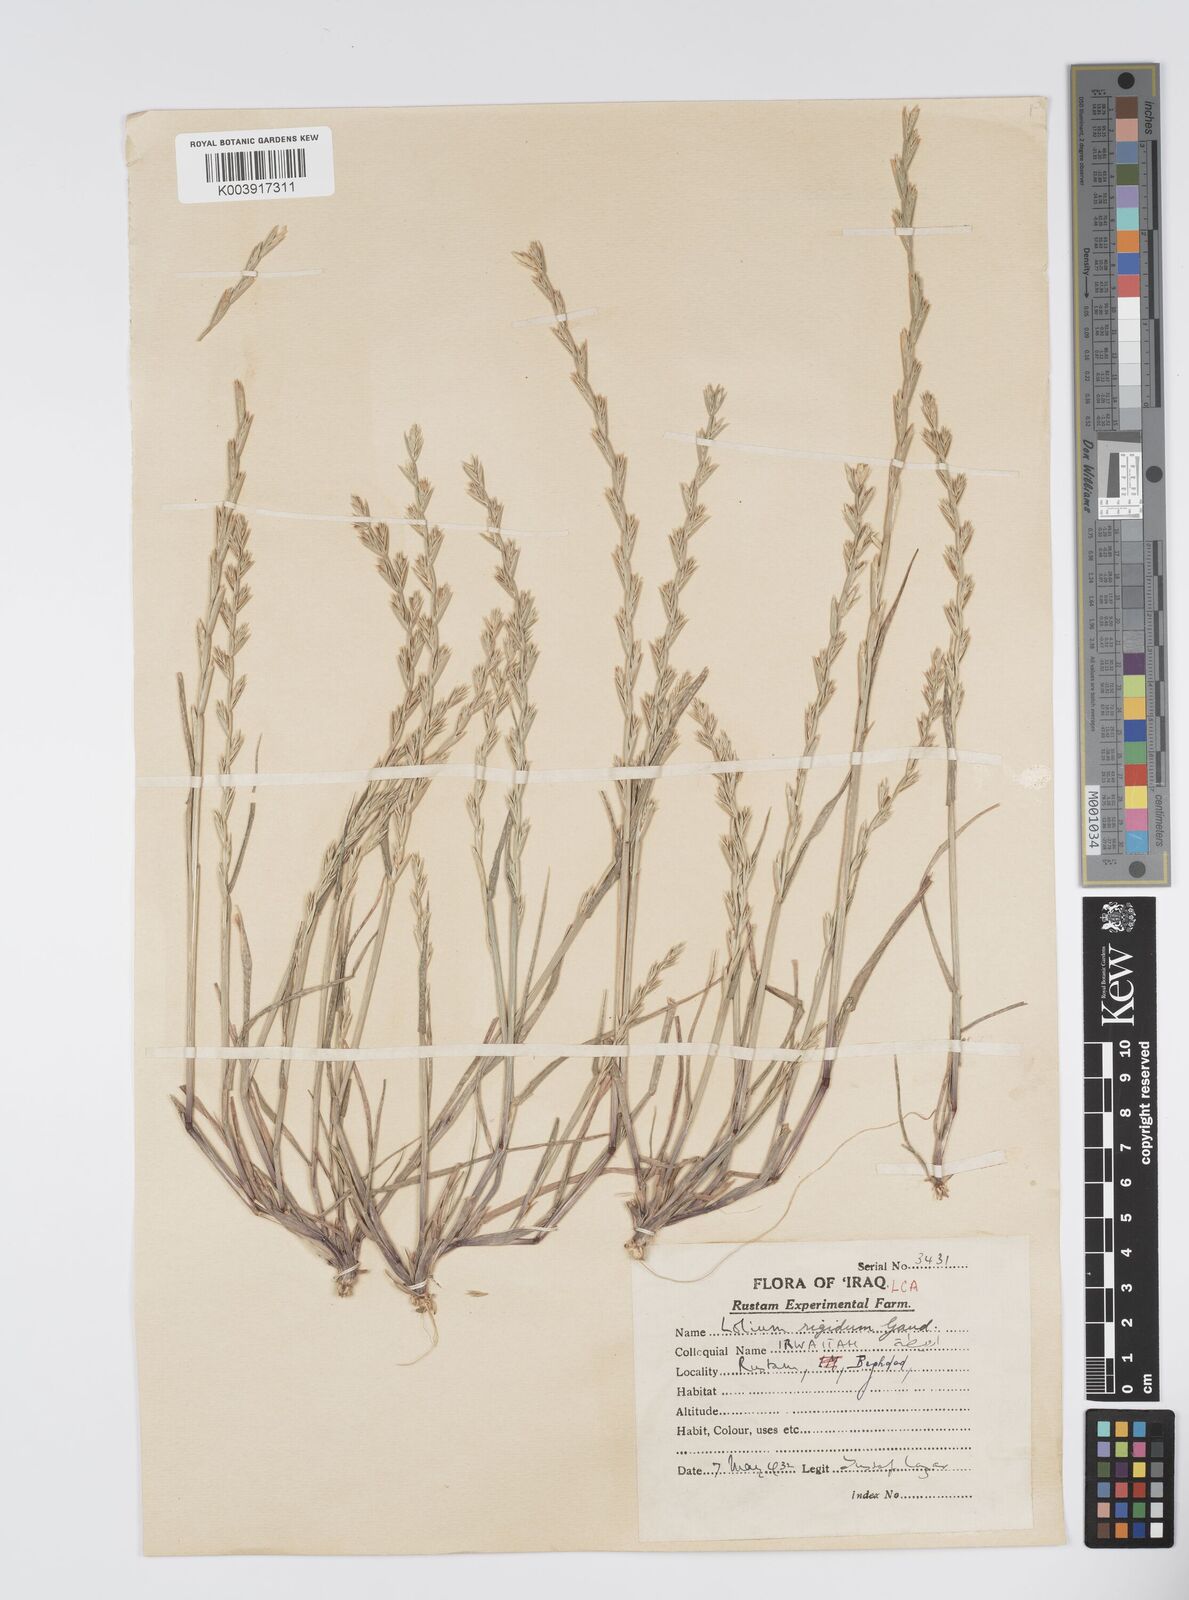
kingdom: Plantae
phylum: Tracheophyta
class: Liliopsida
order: Poales
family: Poaceae
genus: Lolium
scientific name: Lolium rigidum
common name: Wimmera ryegrass
